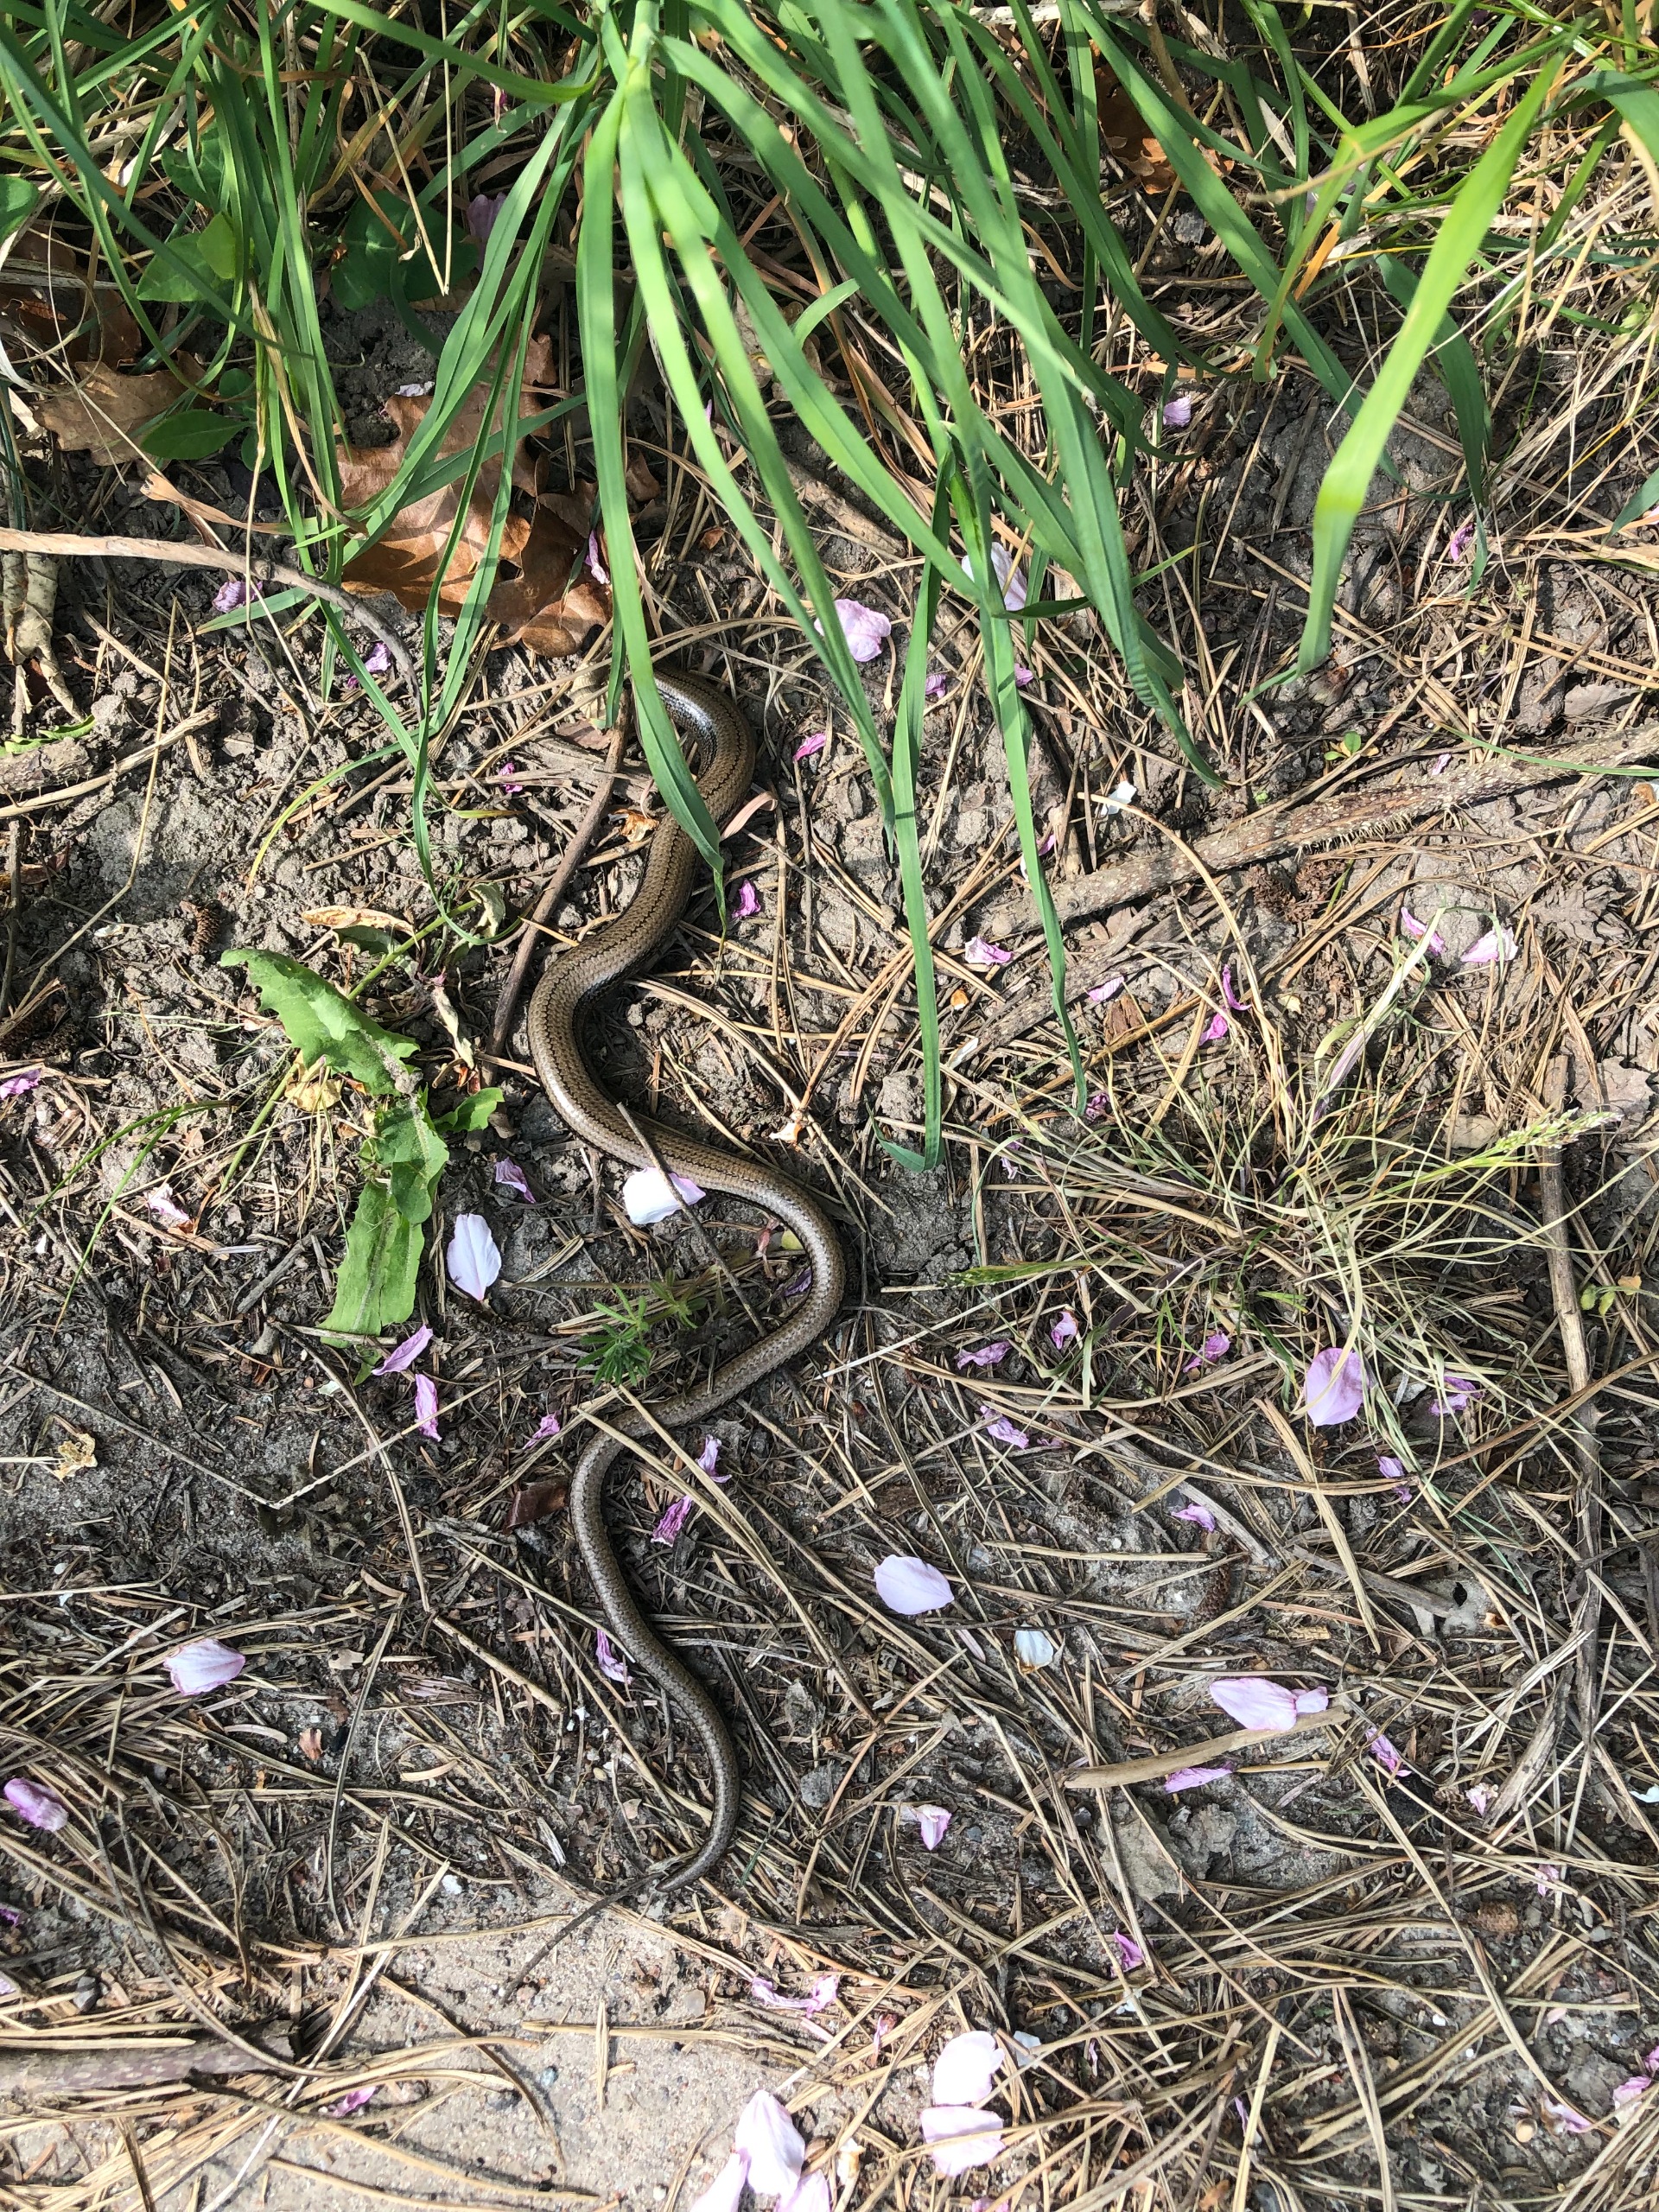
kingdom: Animalia
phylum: Chordata
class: Squamata
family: Anguidae
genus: Anguis
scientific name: Anguis fragilis
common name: Stålorm
